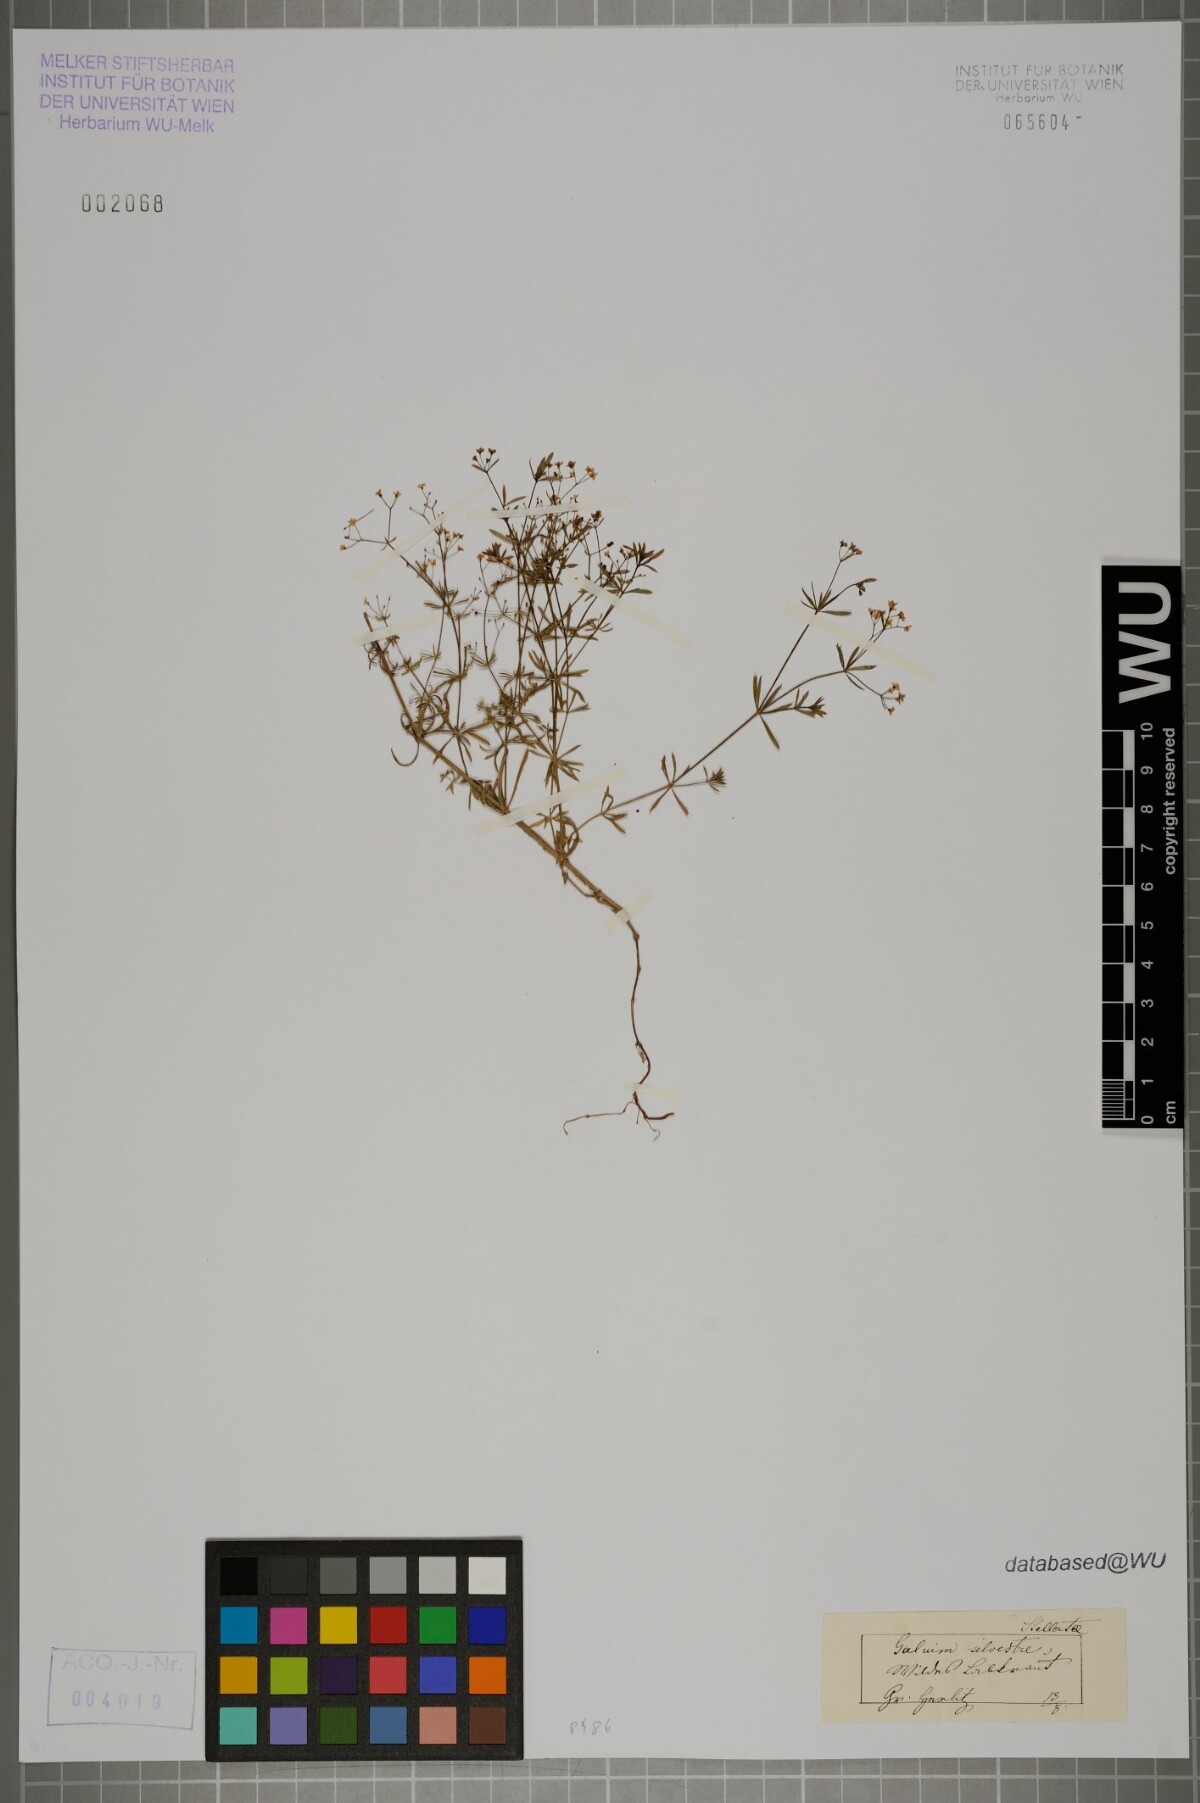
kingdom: Plantae
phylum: Tracheophyta
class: Magnoliopsida
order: Gentianales
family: Rubiaceae
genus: Galium
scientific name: Galium pumilum
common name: Slender bedstraw
